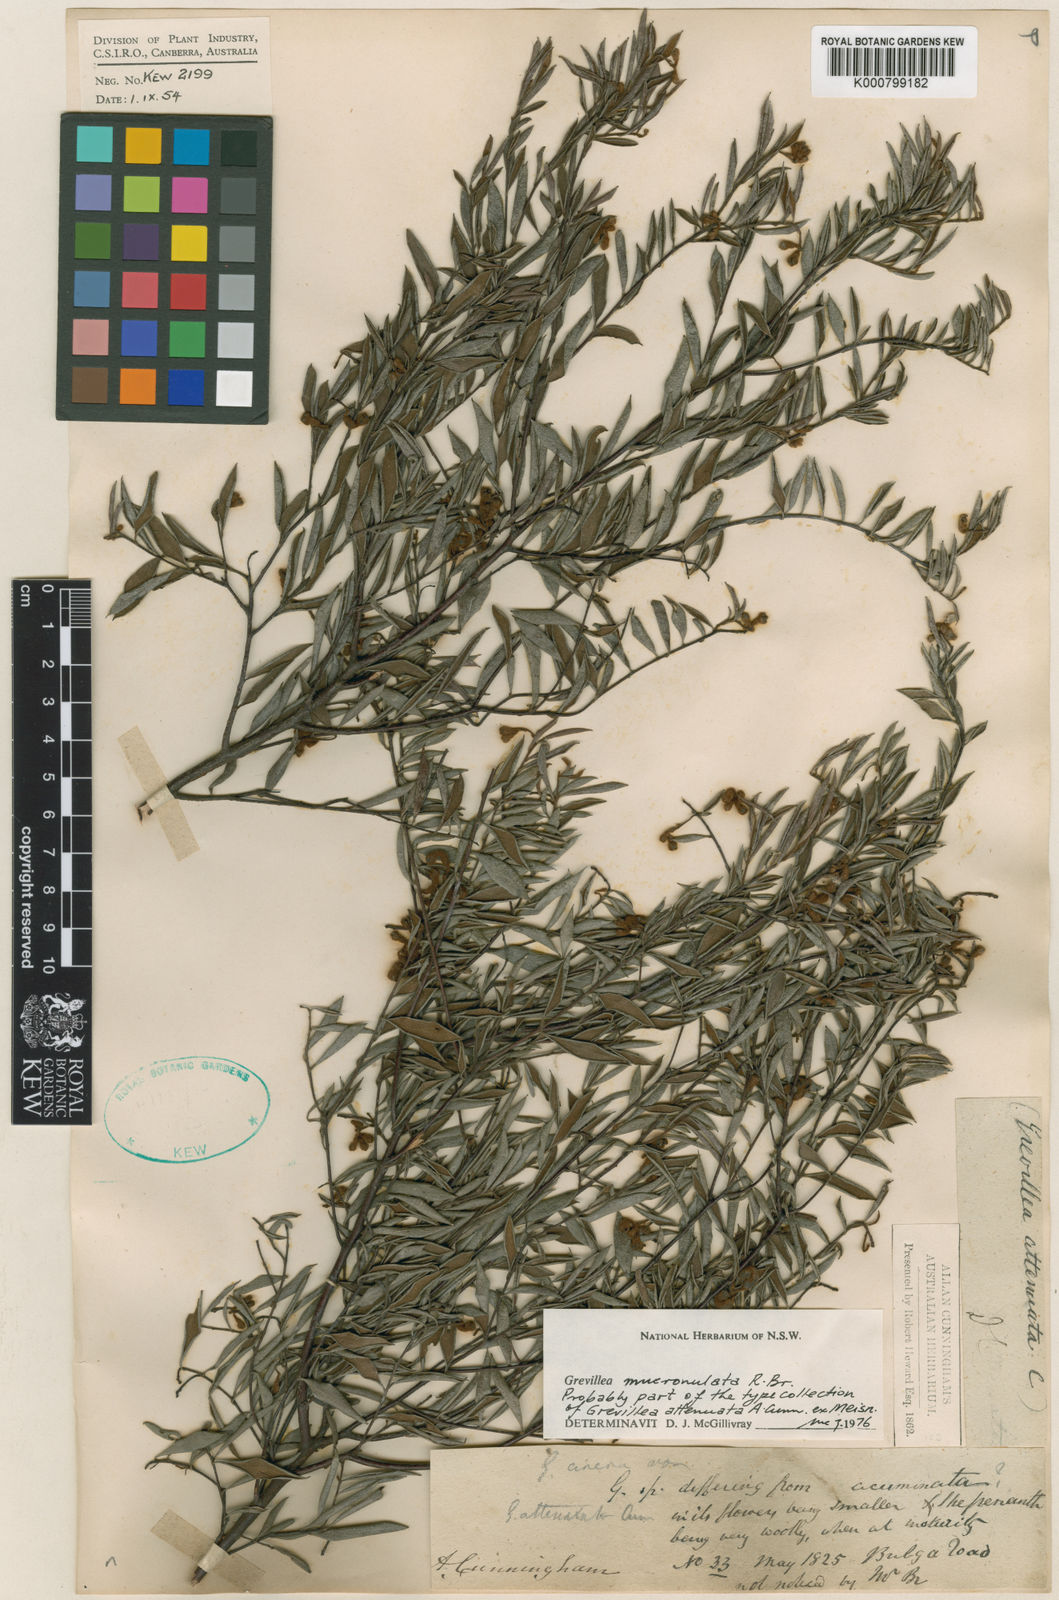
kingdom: Plantae
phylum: Tracheophyta
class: Magnoliopsida
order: Proteales
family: Proteaceae
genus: Grevillea
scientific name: Grevillea mucronulata
